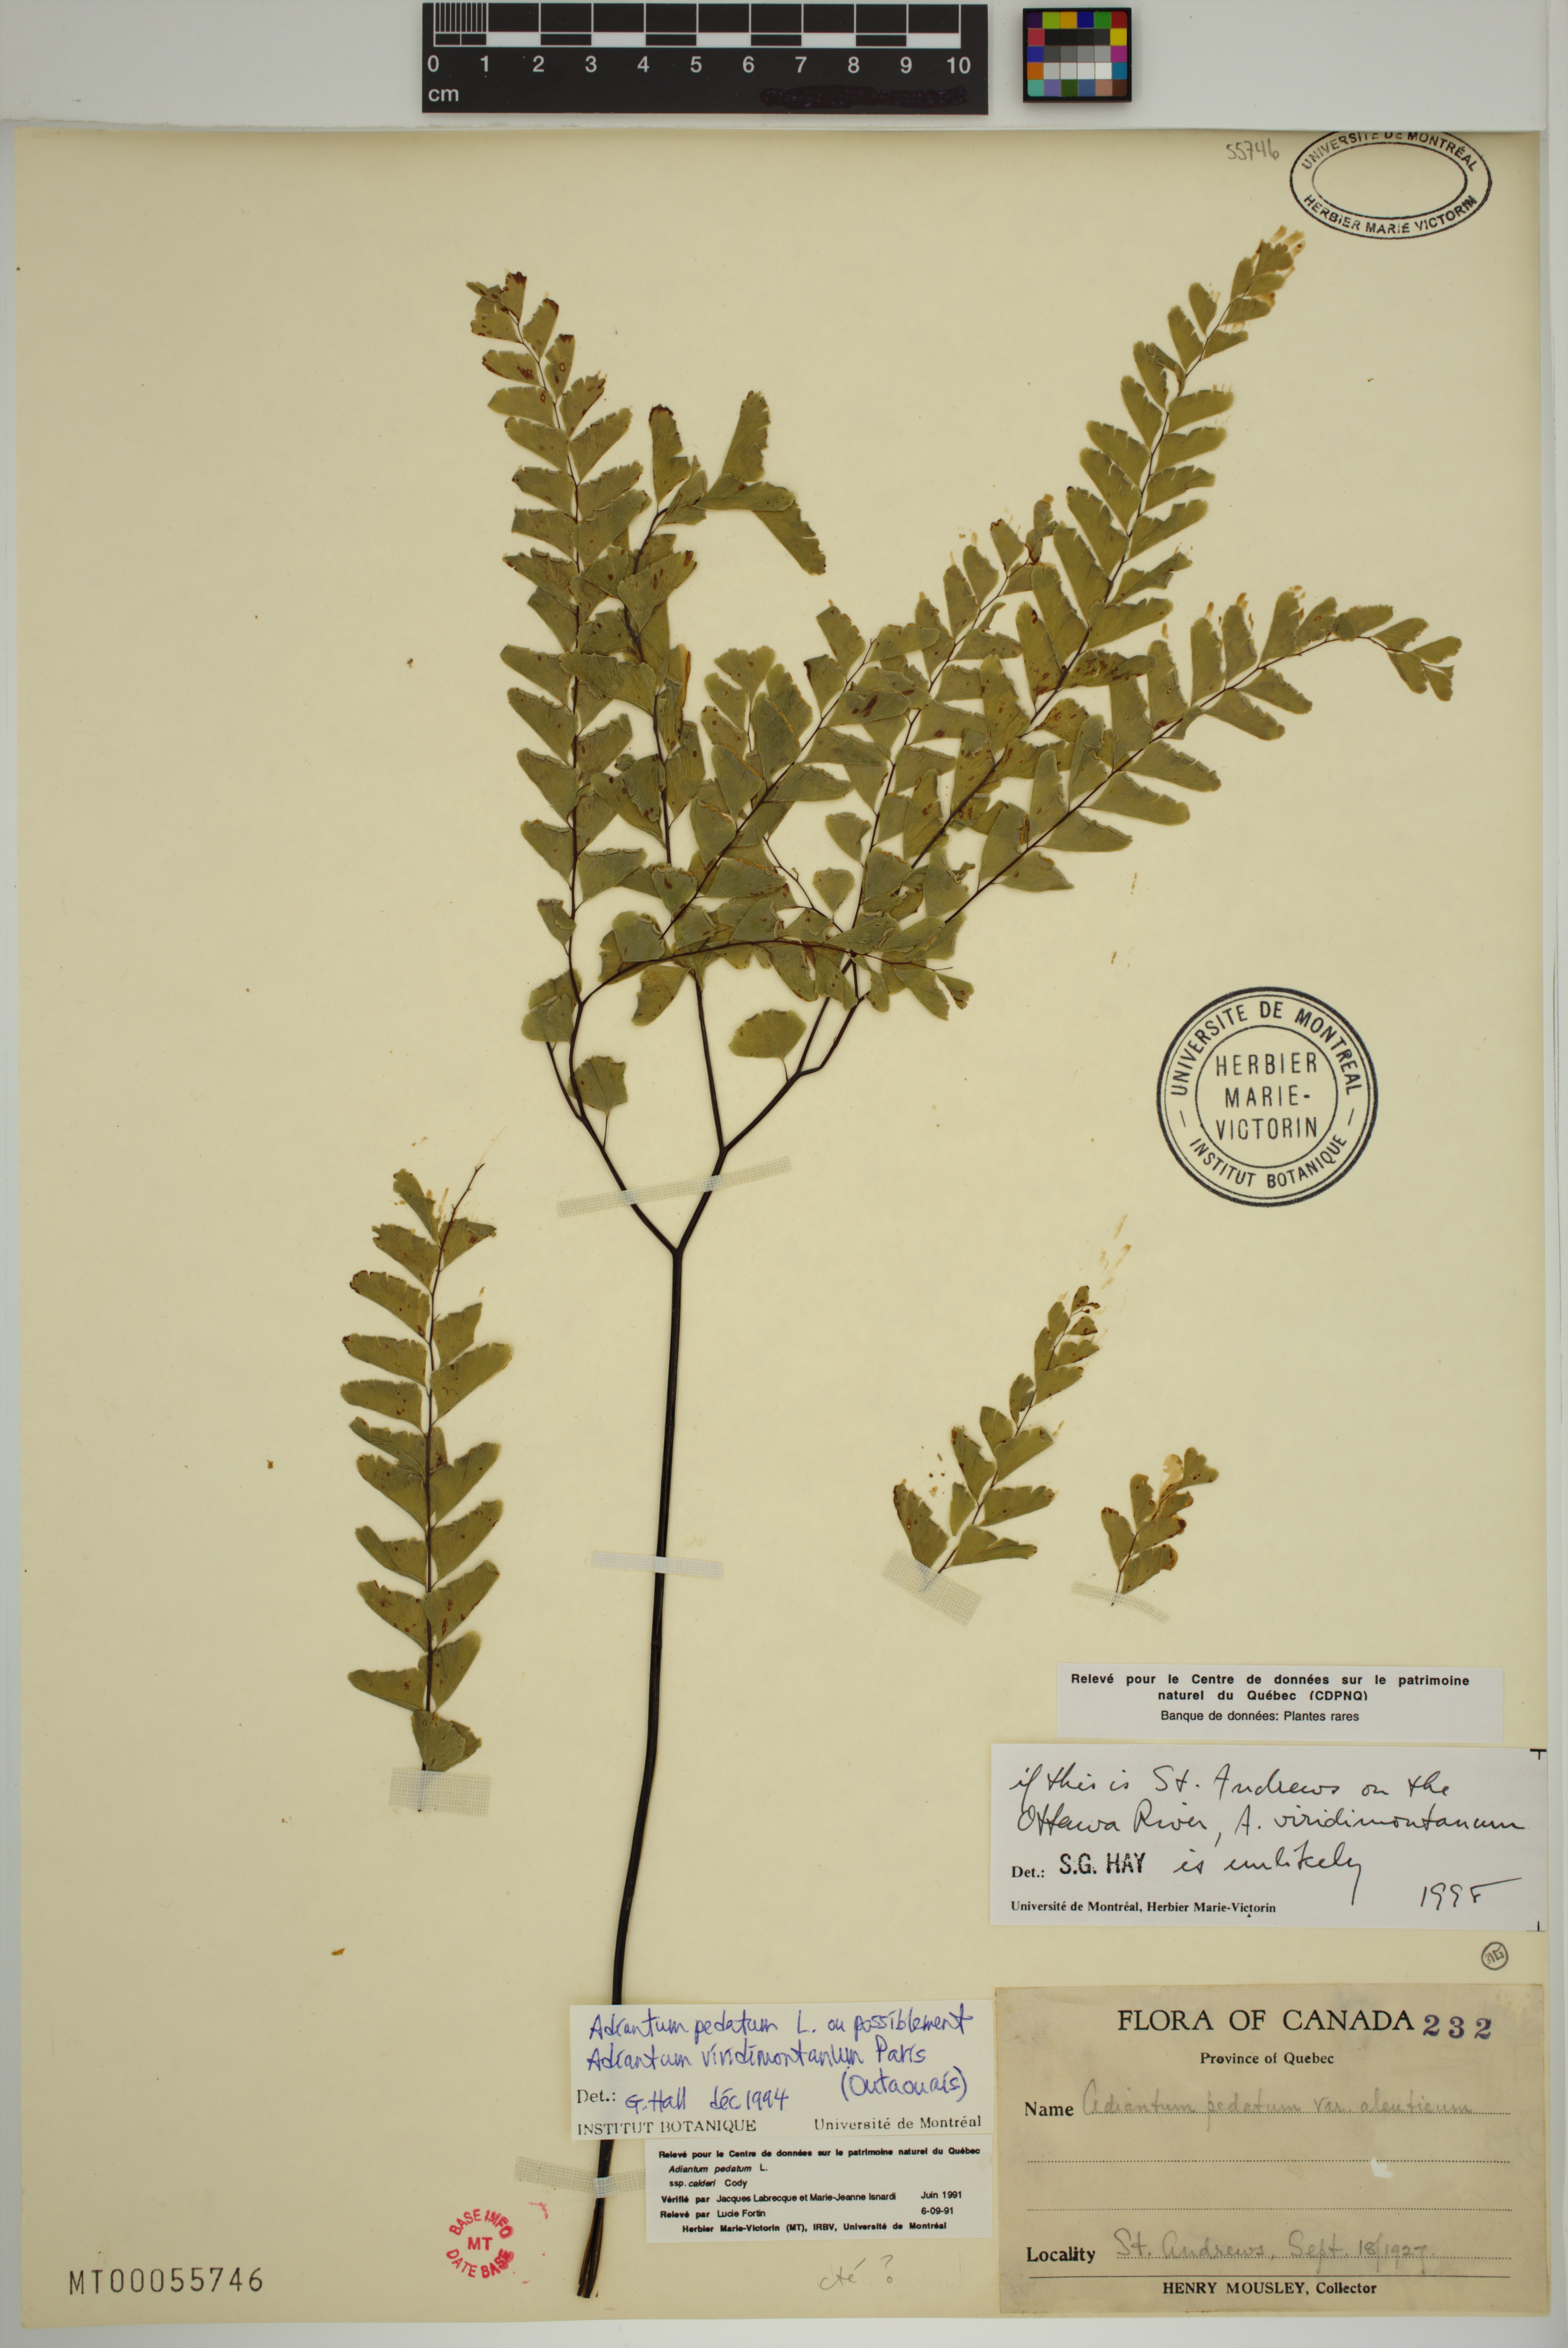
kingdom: Plantae
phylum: Tracheophyta
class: Polypodiopsida
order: Polypodiales
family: Pteridaceae
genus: Adiantum
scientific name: Adiantum pedatum
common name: Five-finger fern
